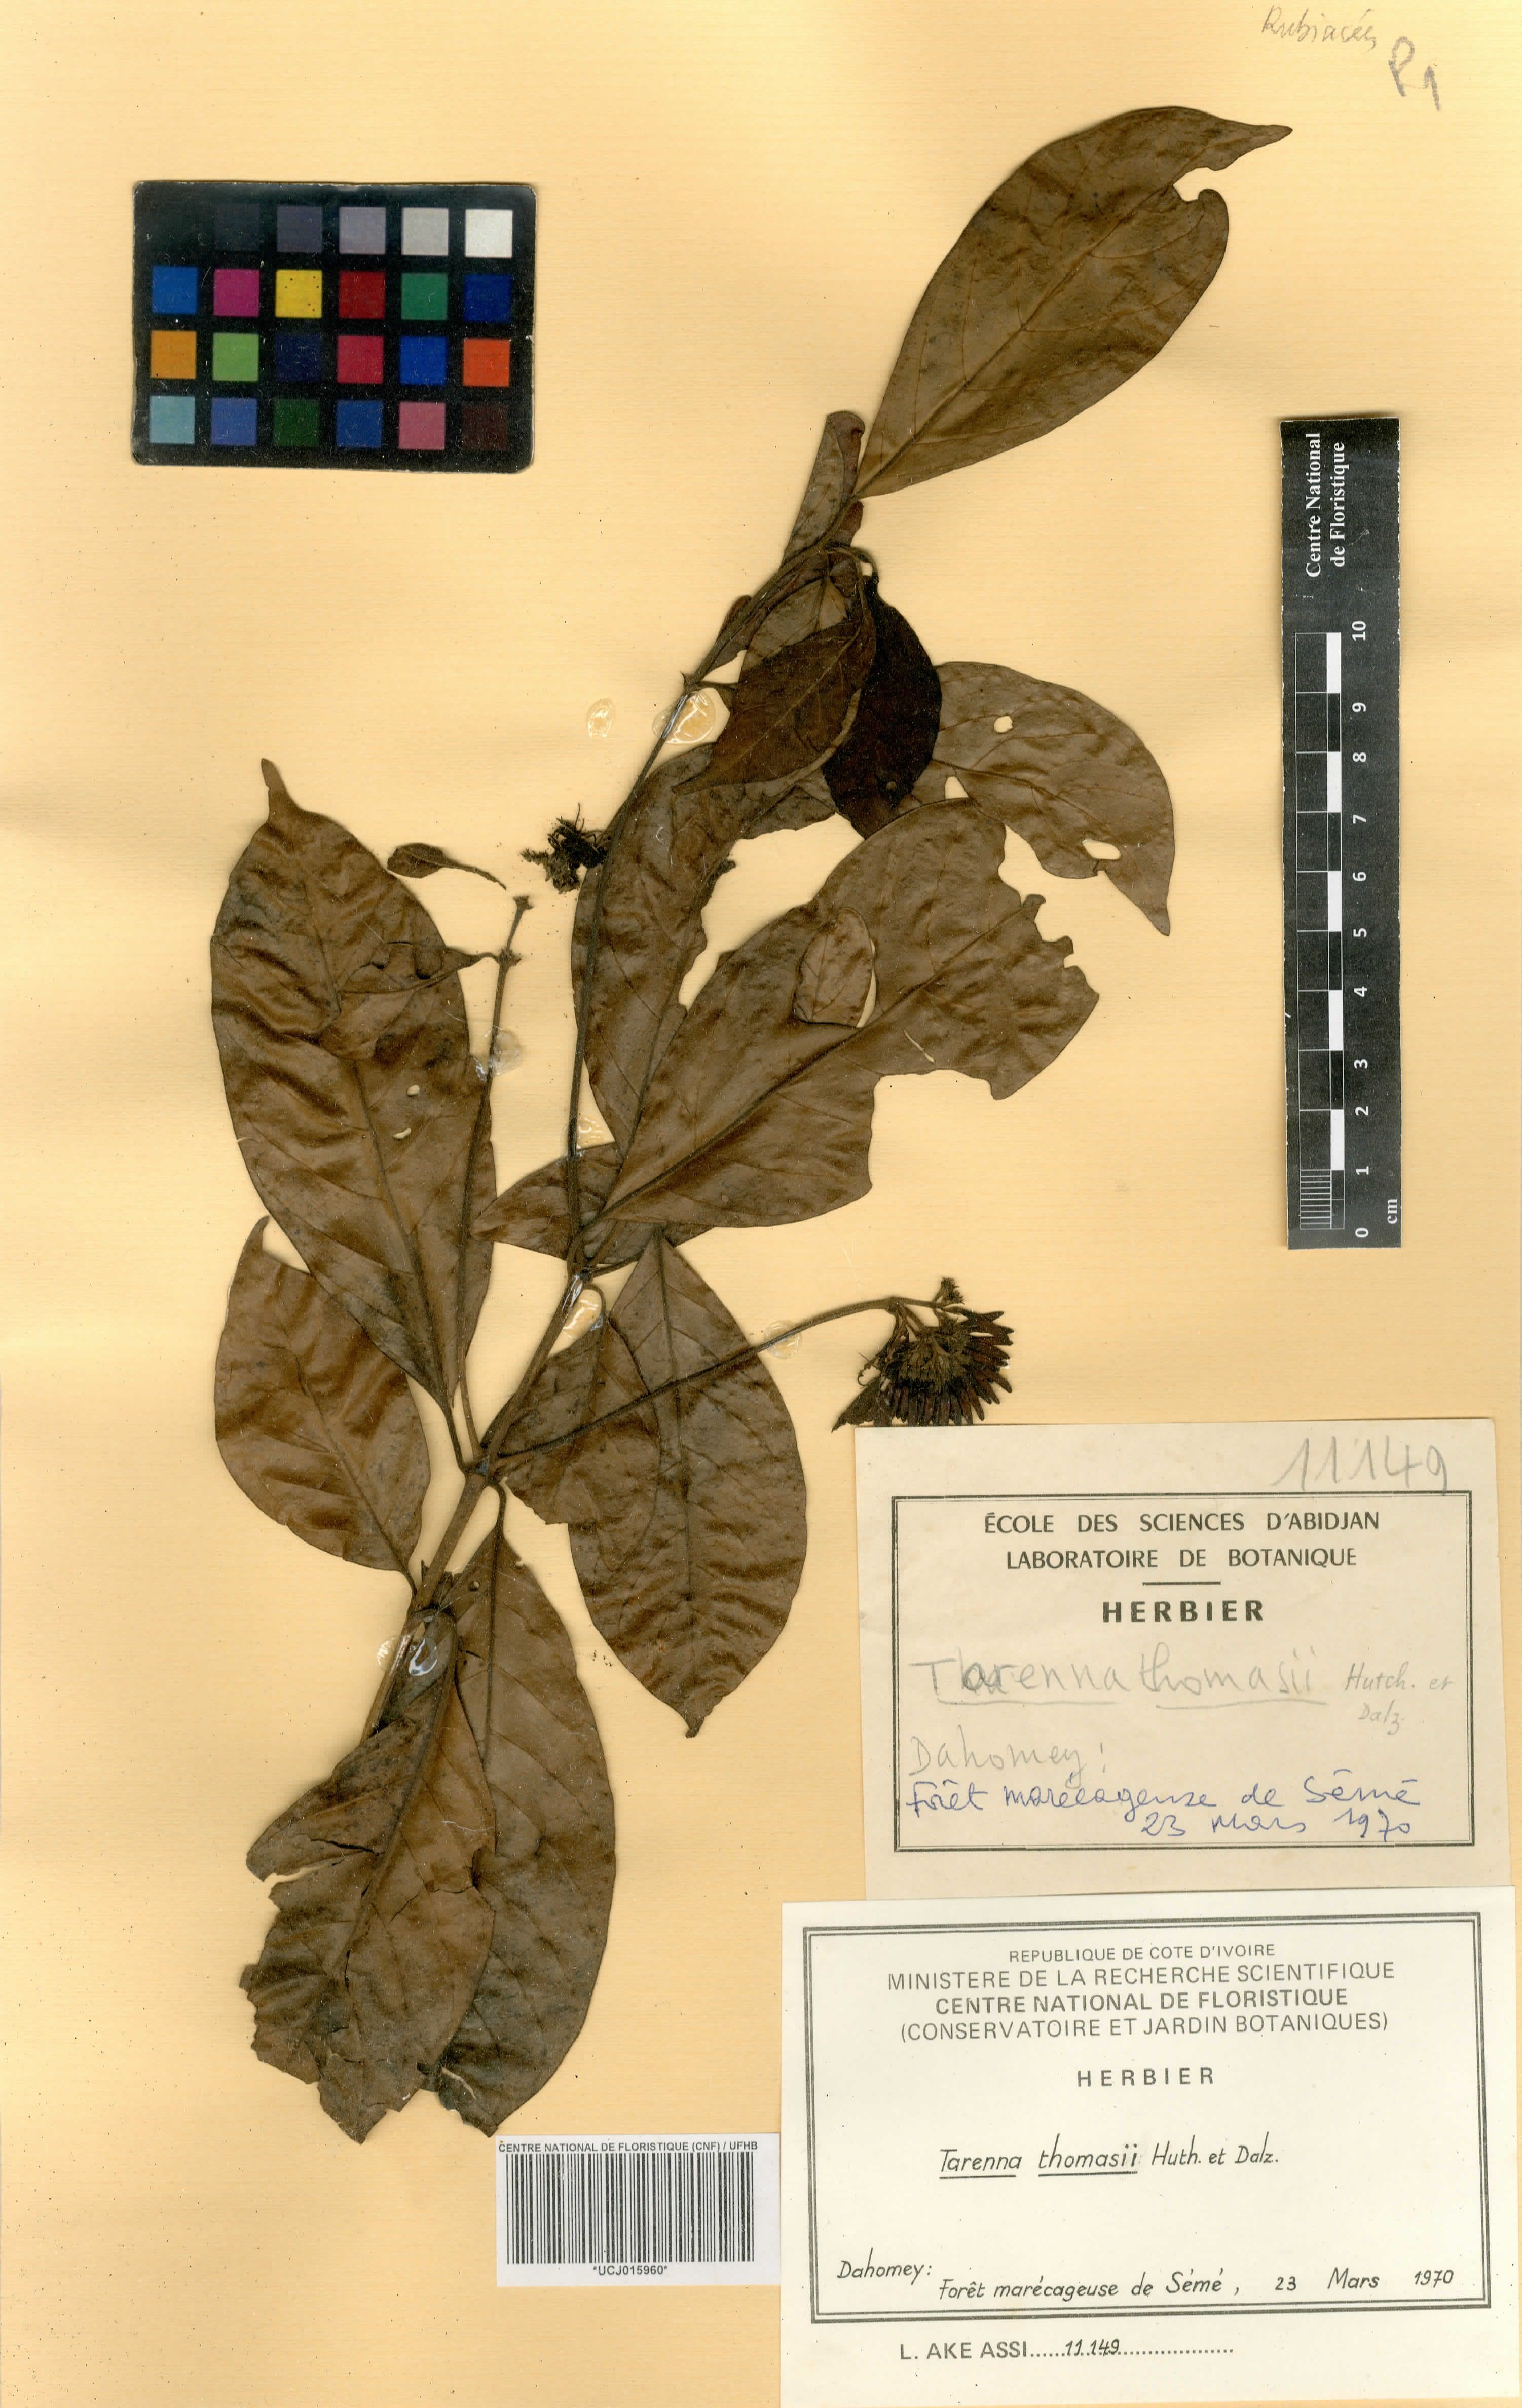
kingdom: Plantae
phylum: Tracheophyta
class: Magnoliopsida
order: Gentianales
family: Rubiaceae
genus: Tarenna
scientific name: Tarenna thomasii
